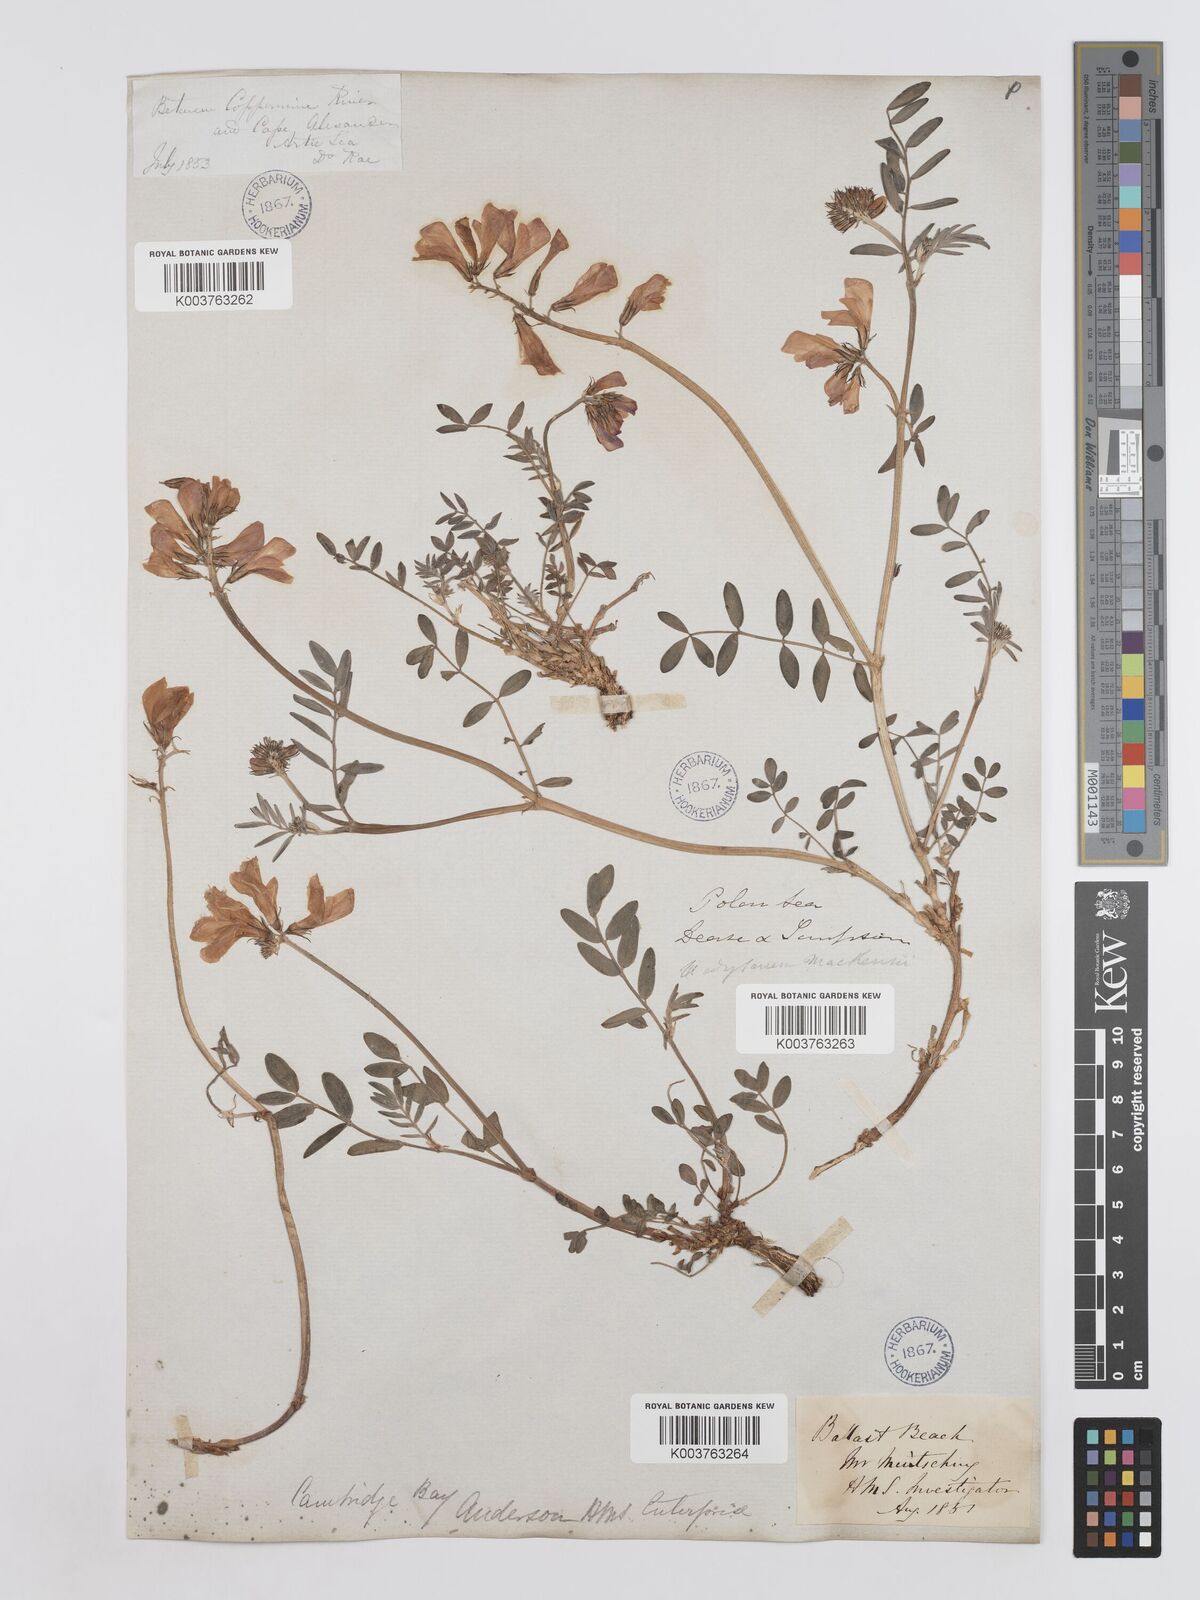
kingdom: Plantae
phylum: Tracheophyta
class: Magnoliopsida
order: Fabales
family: Fabaceae
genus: Hedysarum
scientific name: Hedysarum boreale
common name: Northern sweet-vetch
